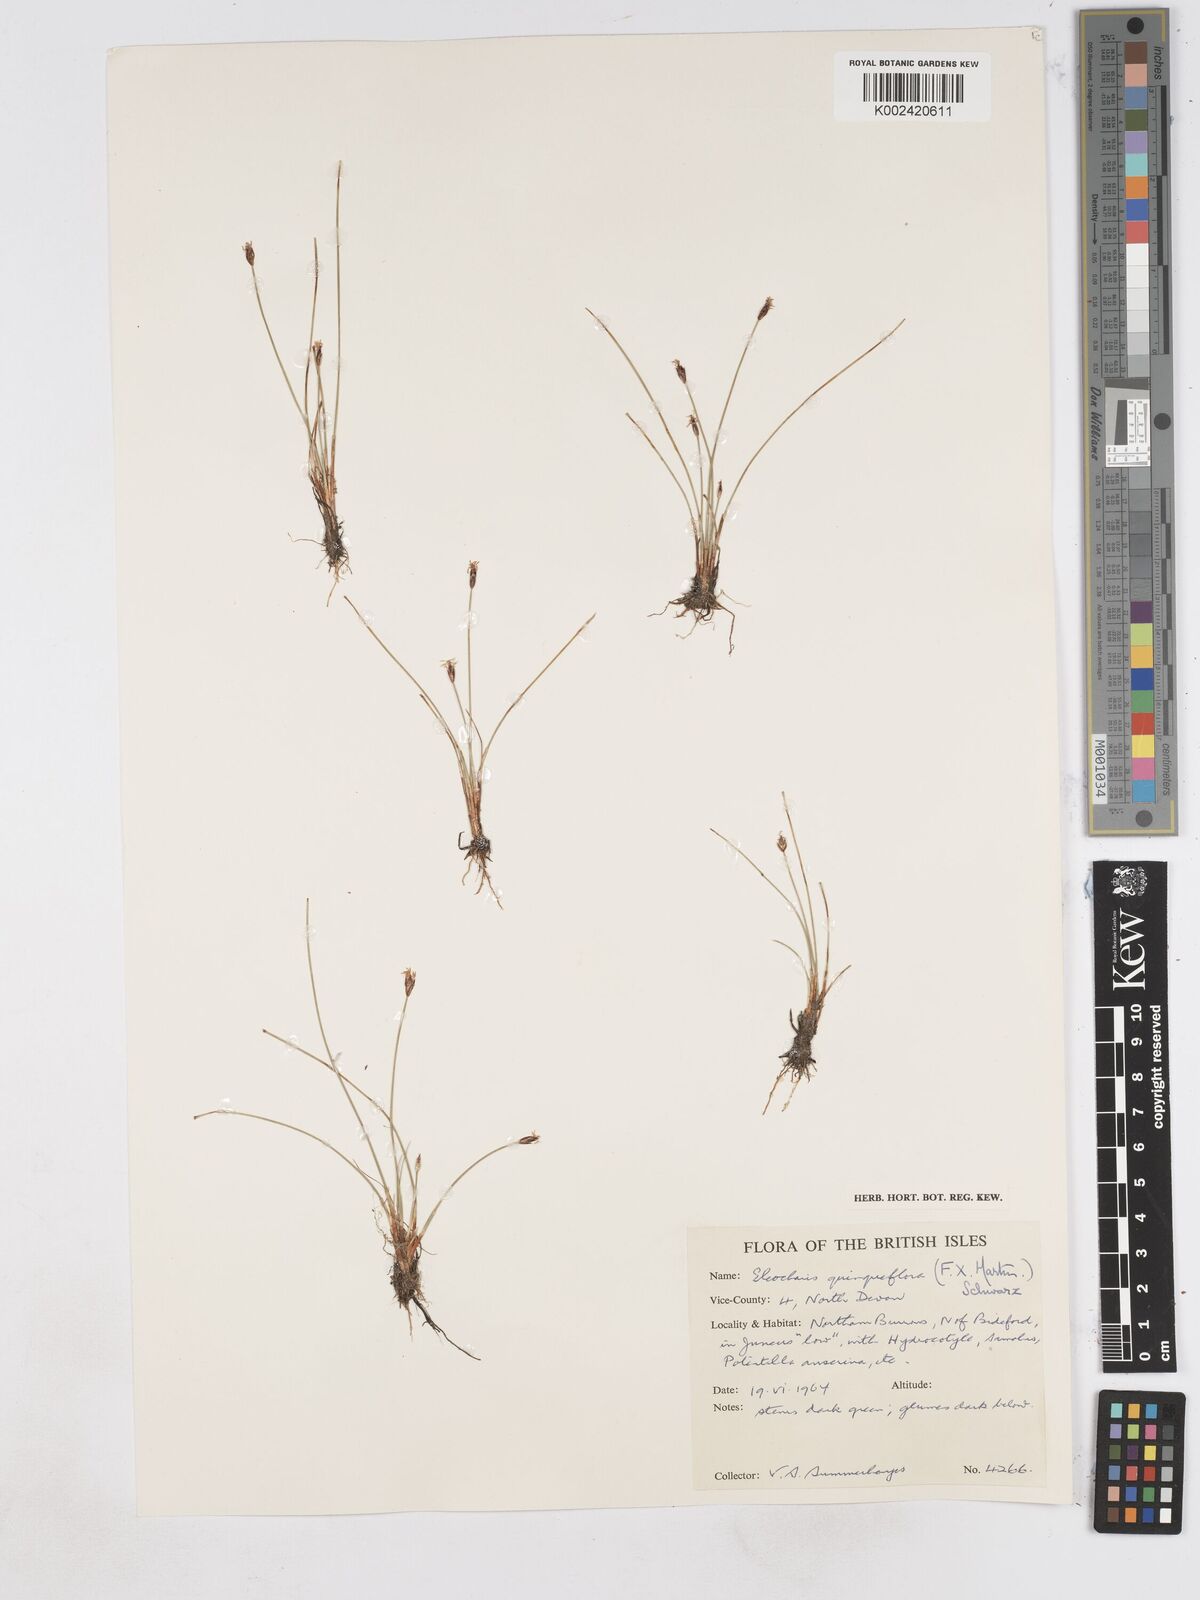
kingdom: Plantae
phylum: Tracheophyta
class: Liliopsida
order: Poales
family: Cyperaceae
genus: Eleocharis
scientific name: Eleocharis quinqueflora
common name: Few-flowered spike-rush
